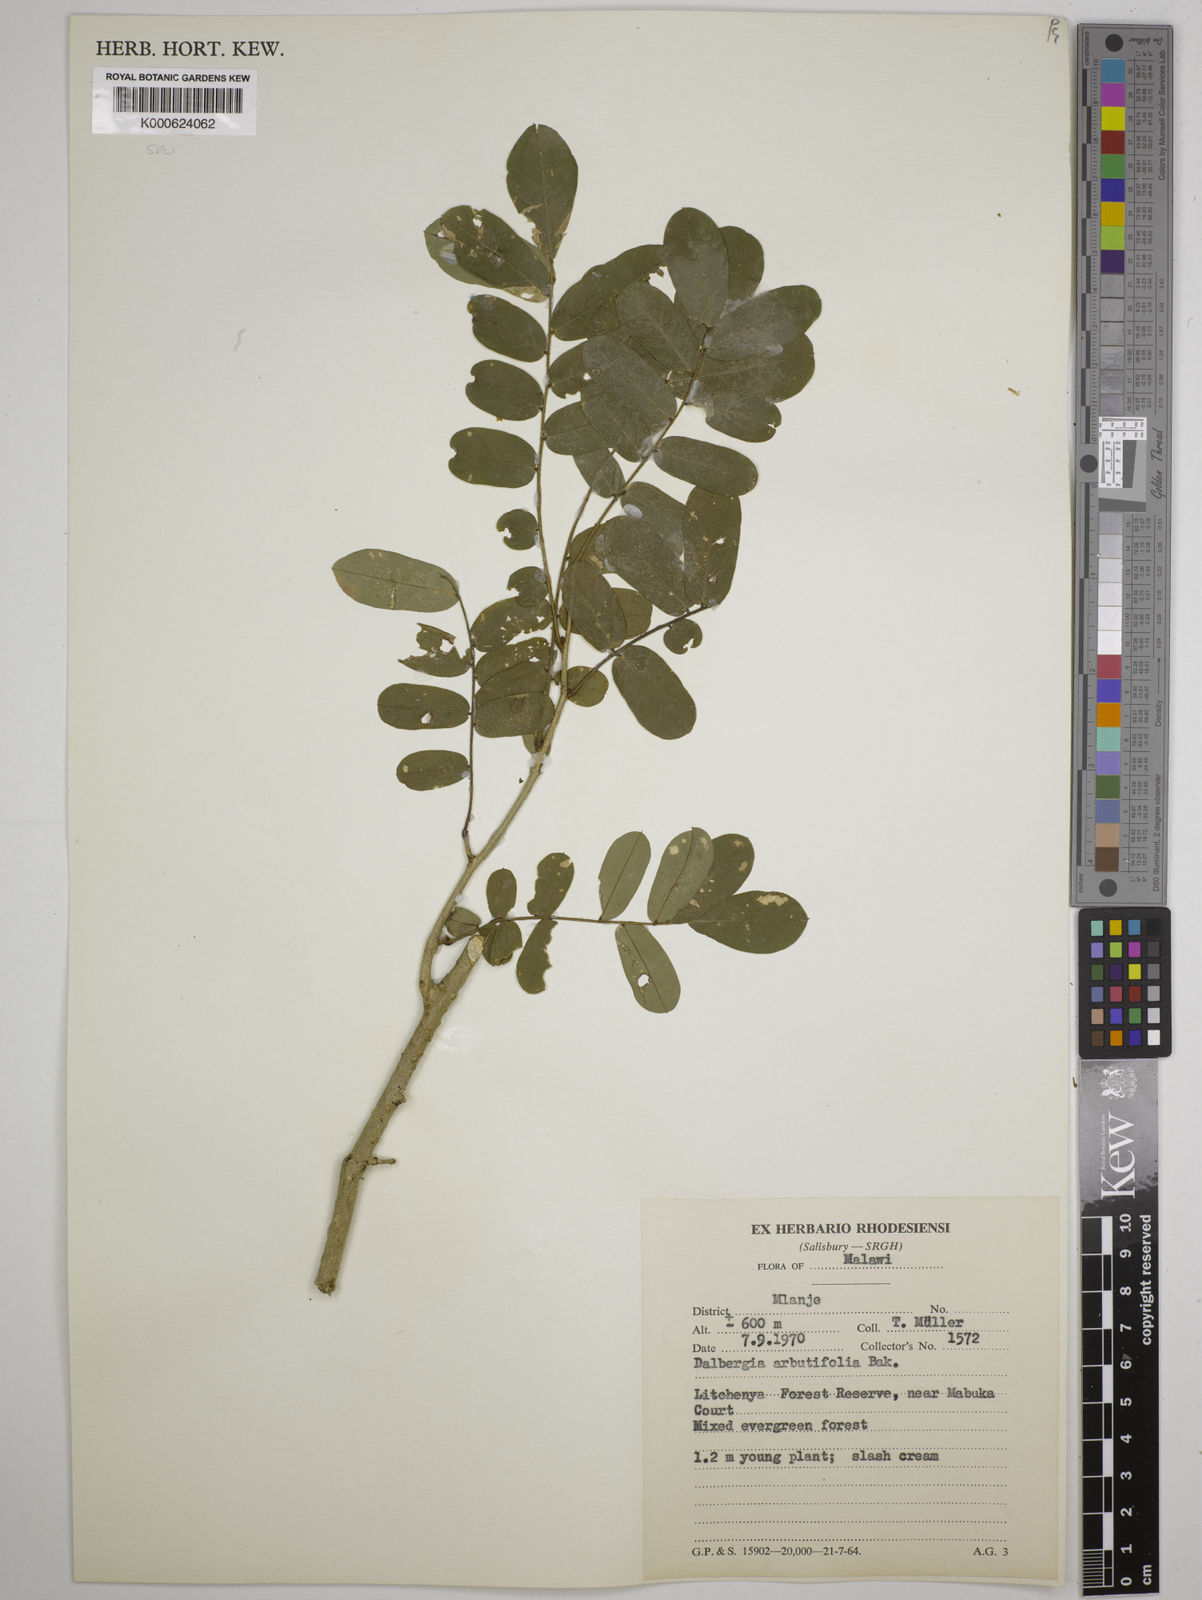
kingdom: Plantae
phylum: Tracheophyta
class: Magnoliopsida
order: Fabales
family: Fabaceae
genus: Dalbergia
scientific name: Dalbergia arbutifolia
